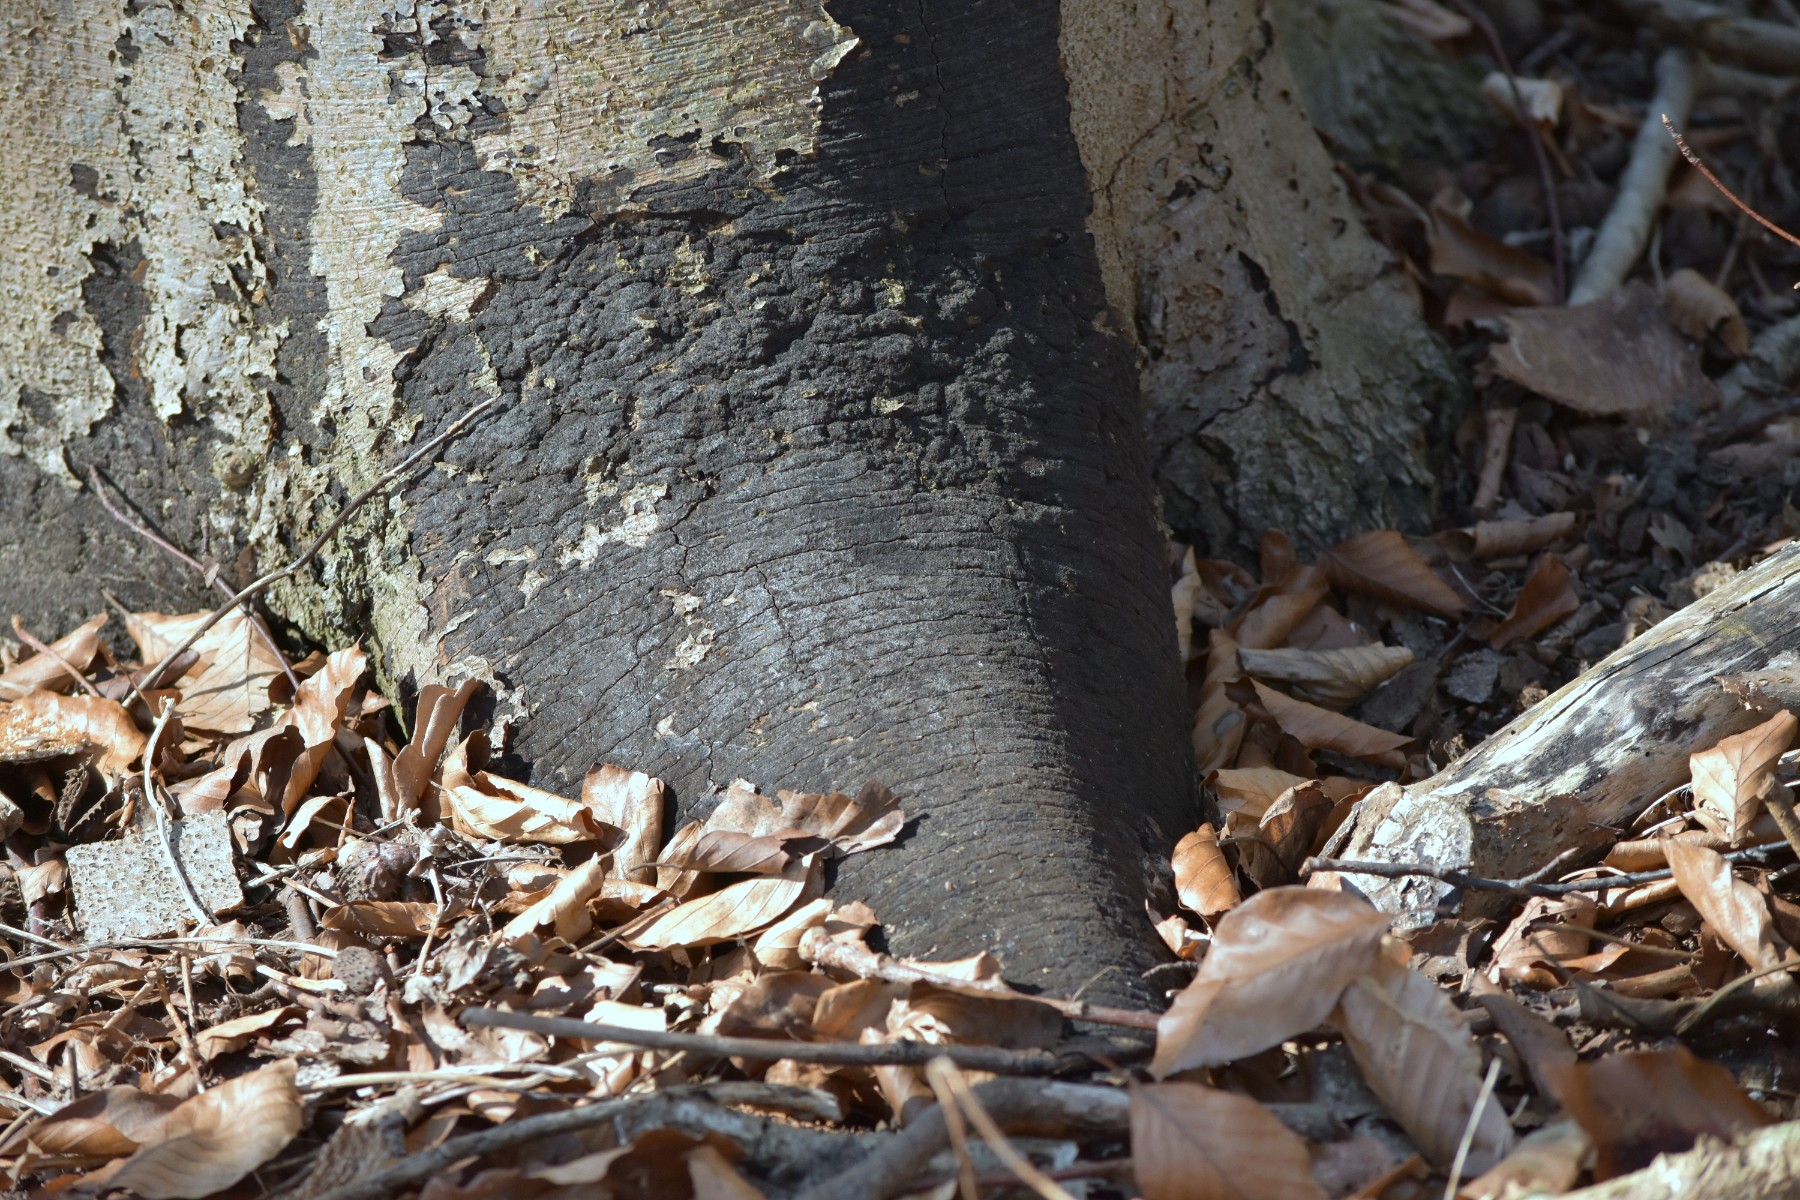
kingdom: Fungi
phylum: Ascomycota
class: Sordariomycetes
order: Xylariales
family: Diatrypaceae
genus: Eutypa
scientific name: Eutypa spinosa
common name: grov kulskorpe
